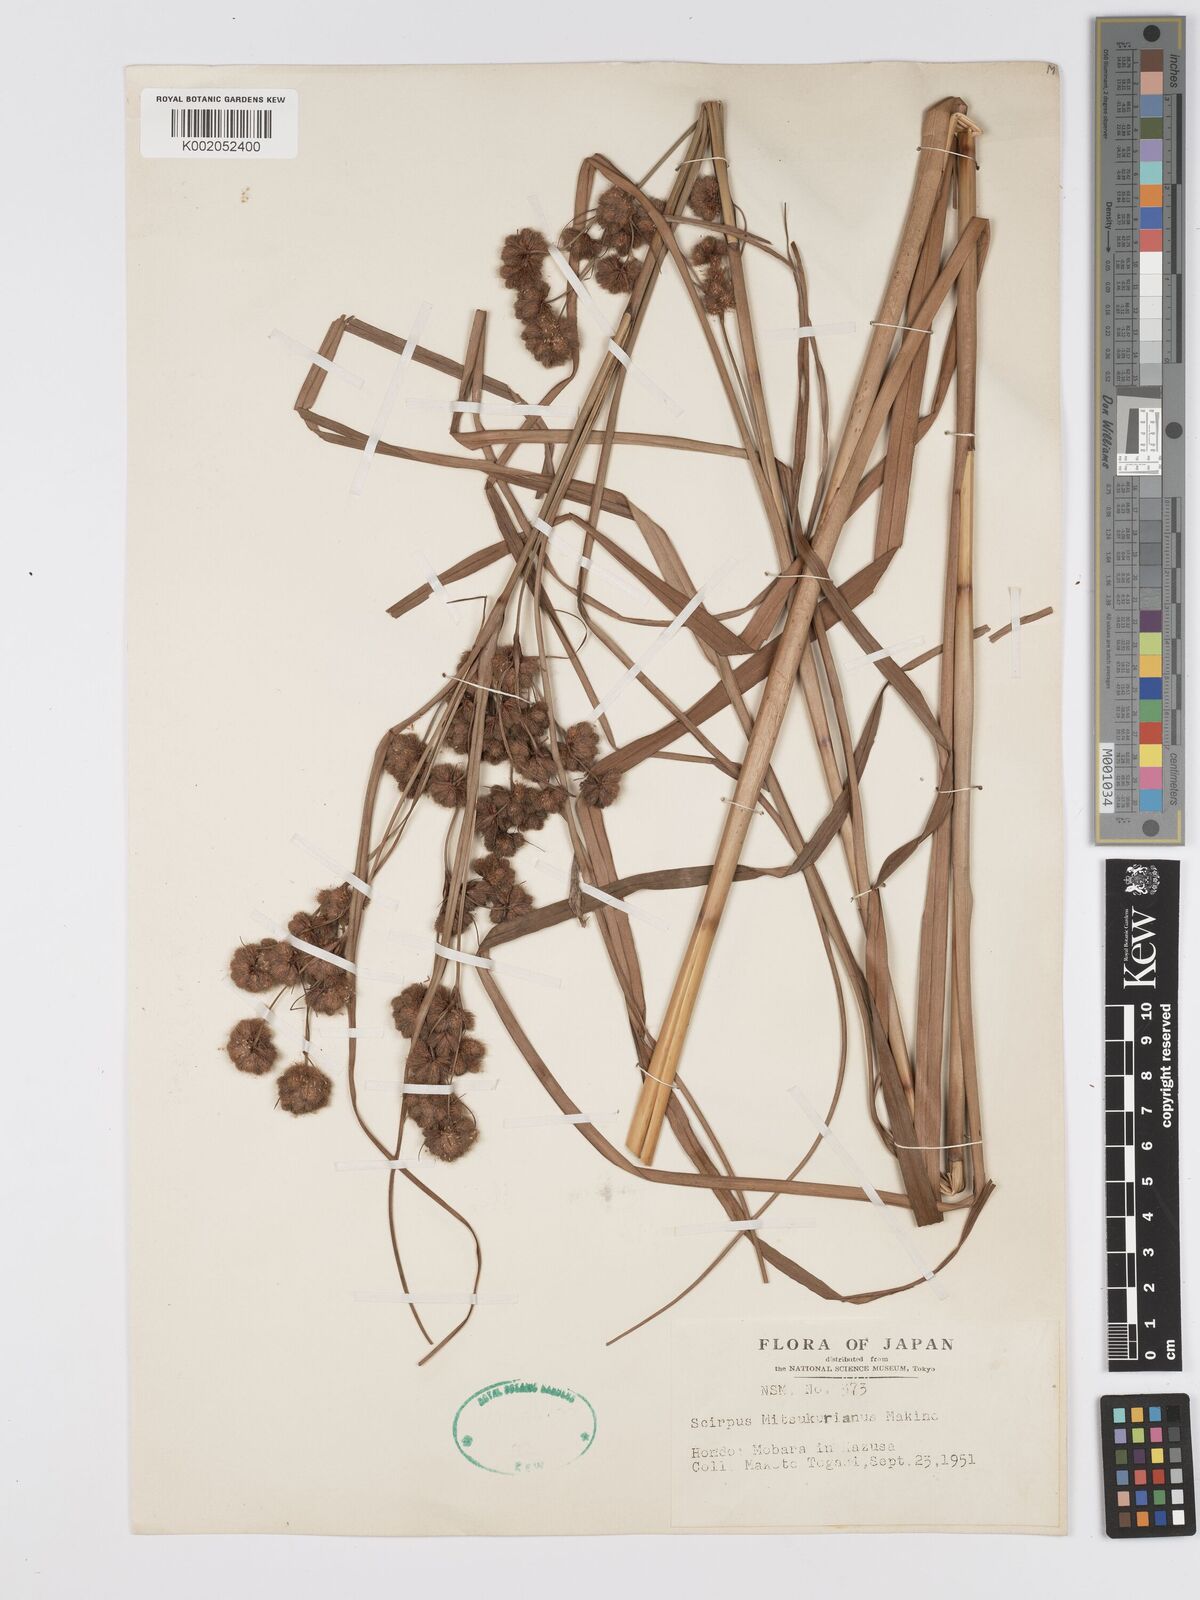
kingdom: Plantae
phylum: Tracheophyta
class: Liliopsida
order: Poales
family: Cyperaceae
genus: Scirpus
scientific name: Scirpus maximowiczii
